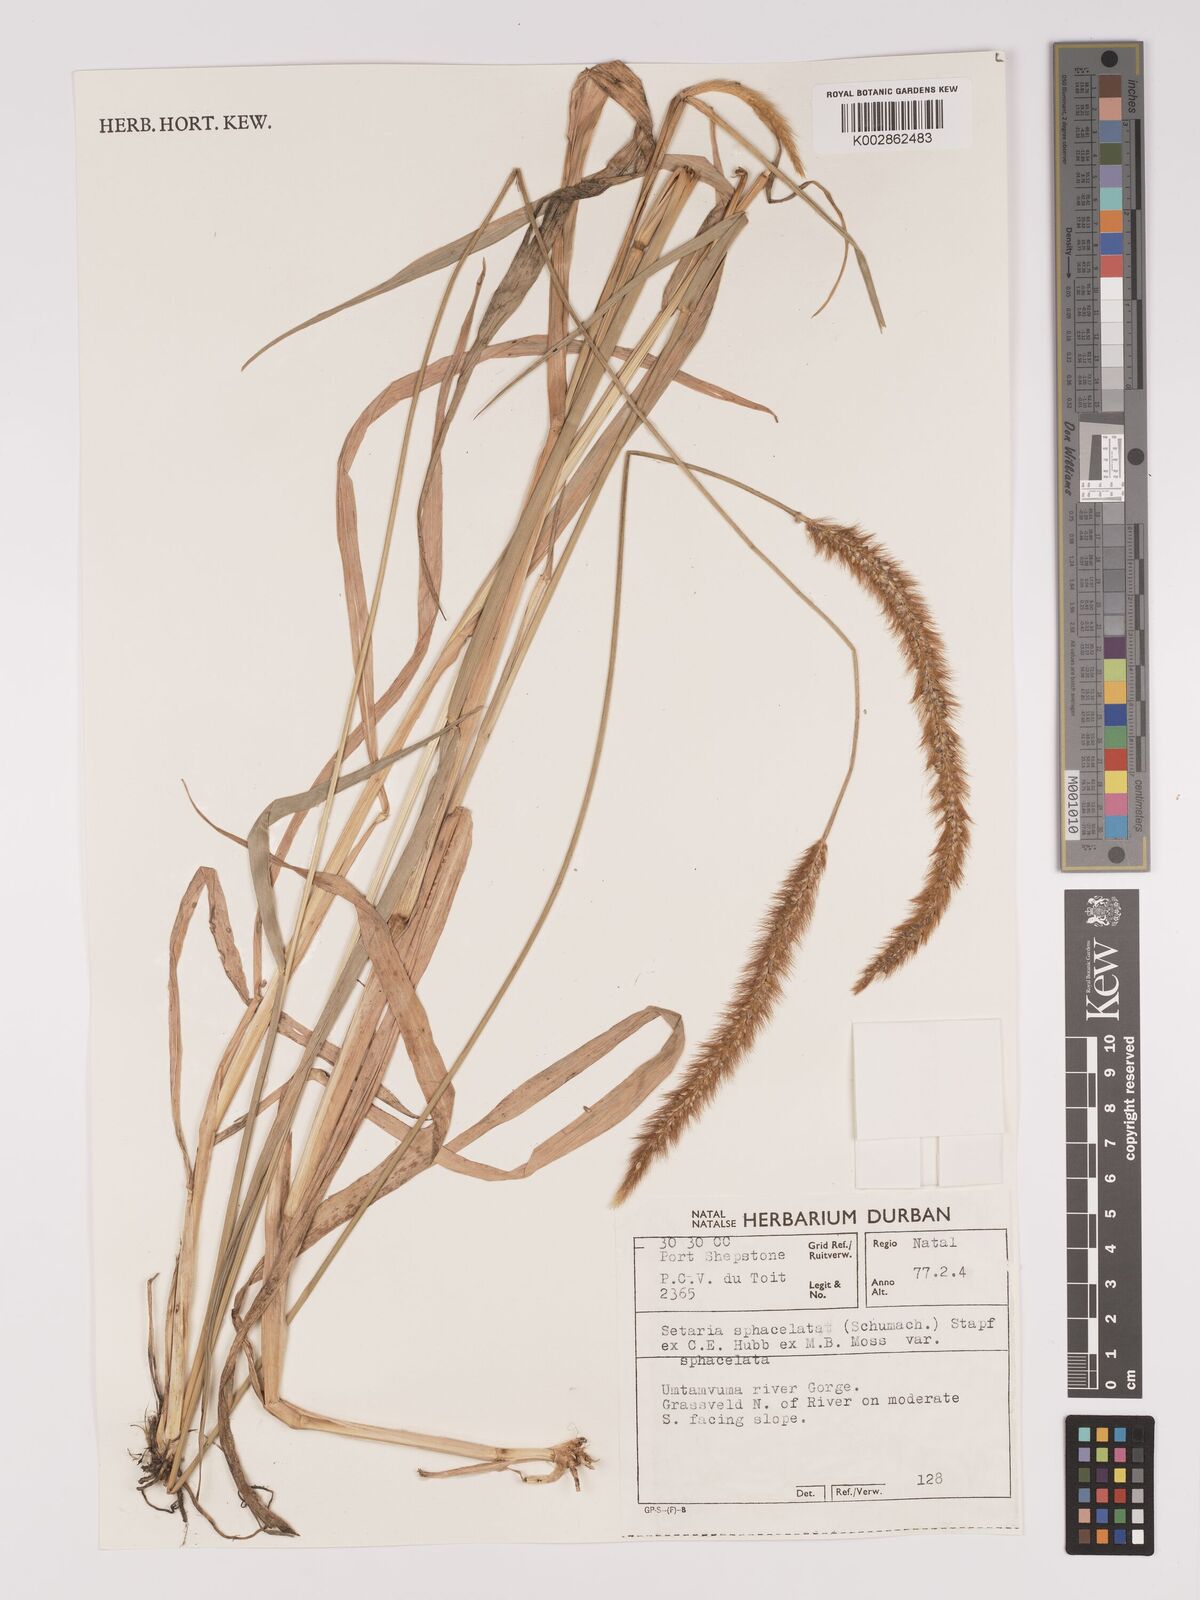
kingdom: Plantae
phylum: Tracheophyta
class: Liliopsida
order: Poales
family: Poaceae
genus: Setaria
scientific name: Setaria sphacelata
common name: African bristlegrass
